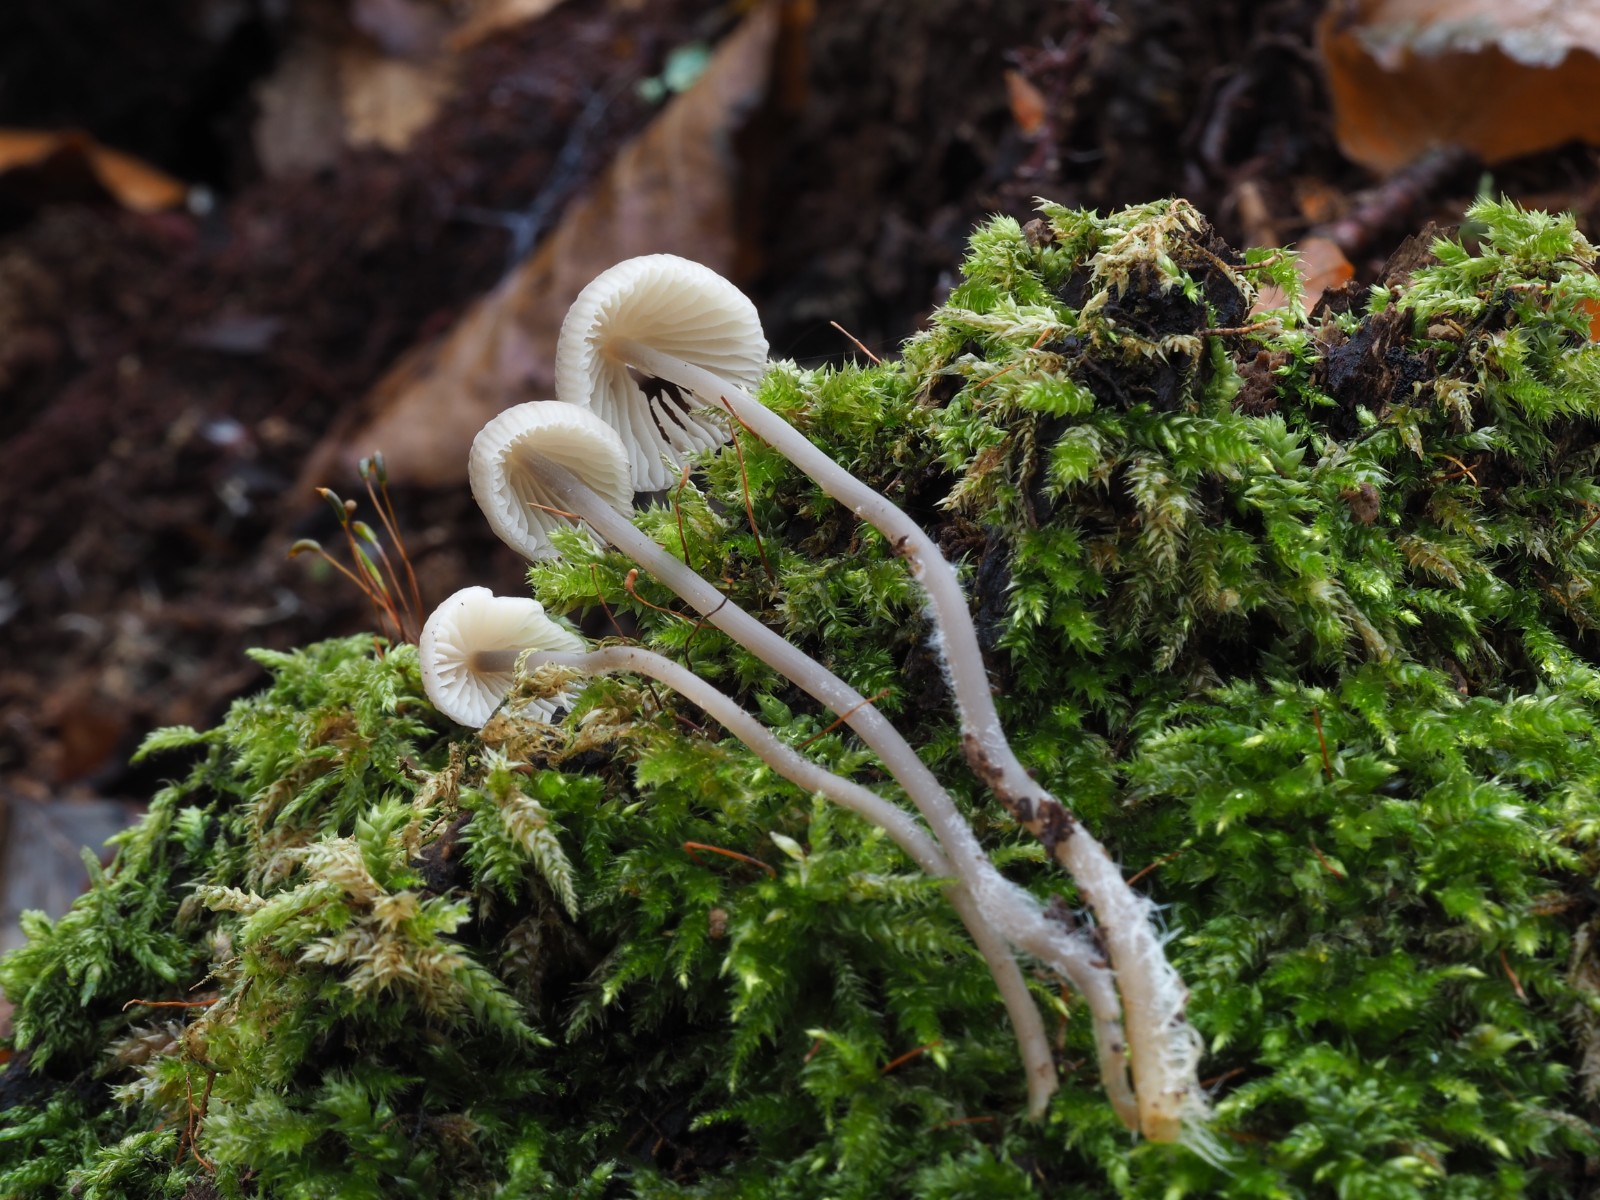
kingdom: Fungi
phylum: Basidiomycota
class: Agaricomycetes
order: Agaricales
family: Mycenaceae
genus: Mycena
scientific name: Mycena arcangeliana
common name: oliven-huesvamp
